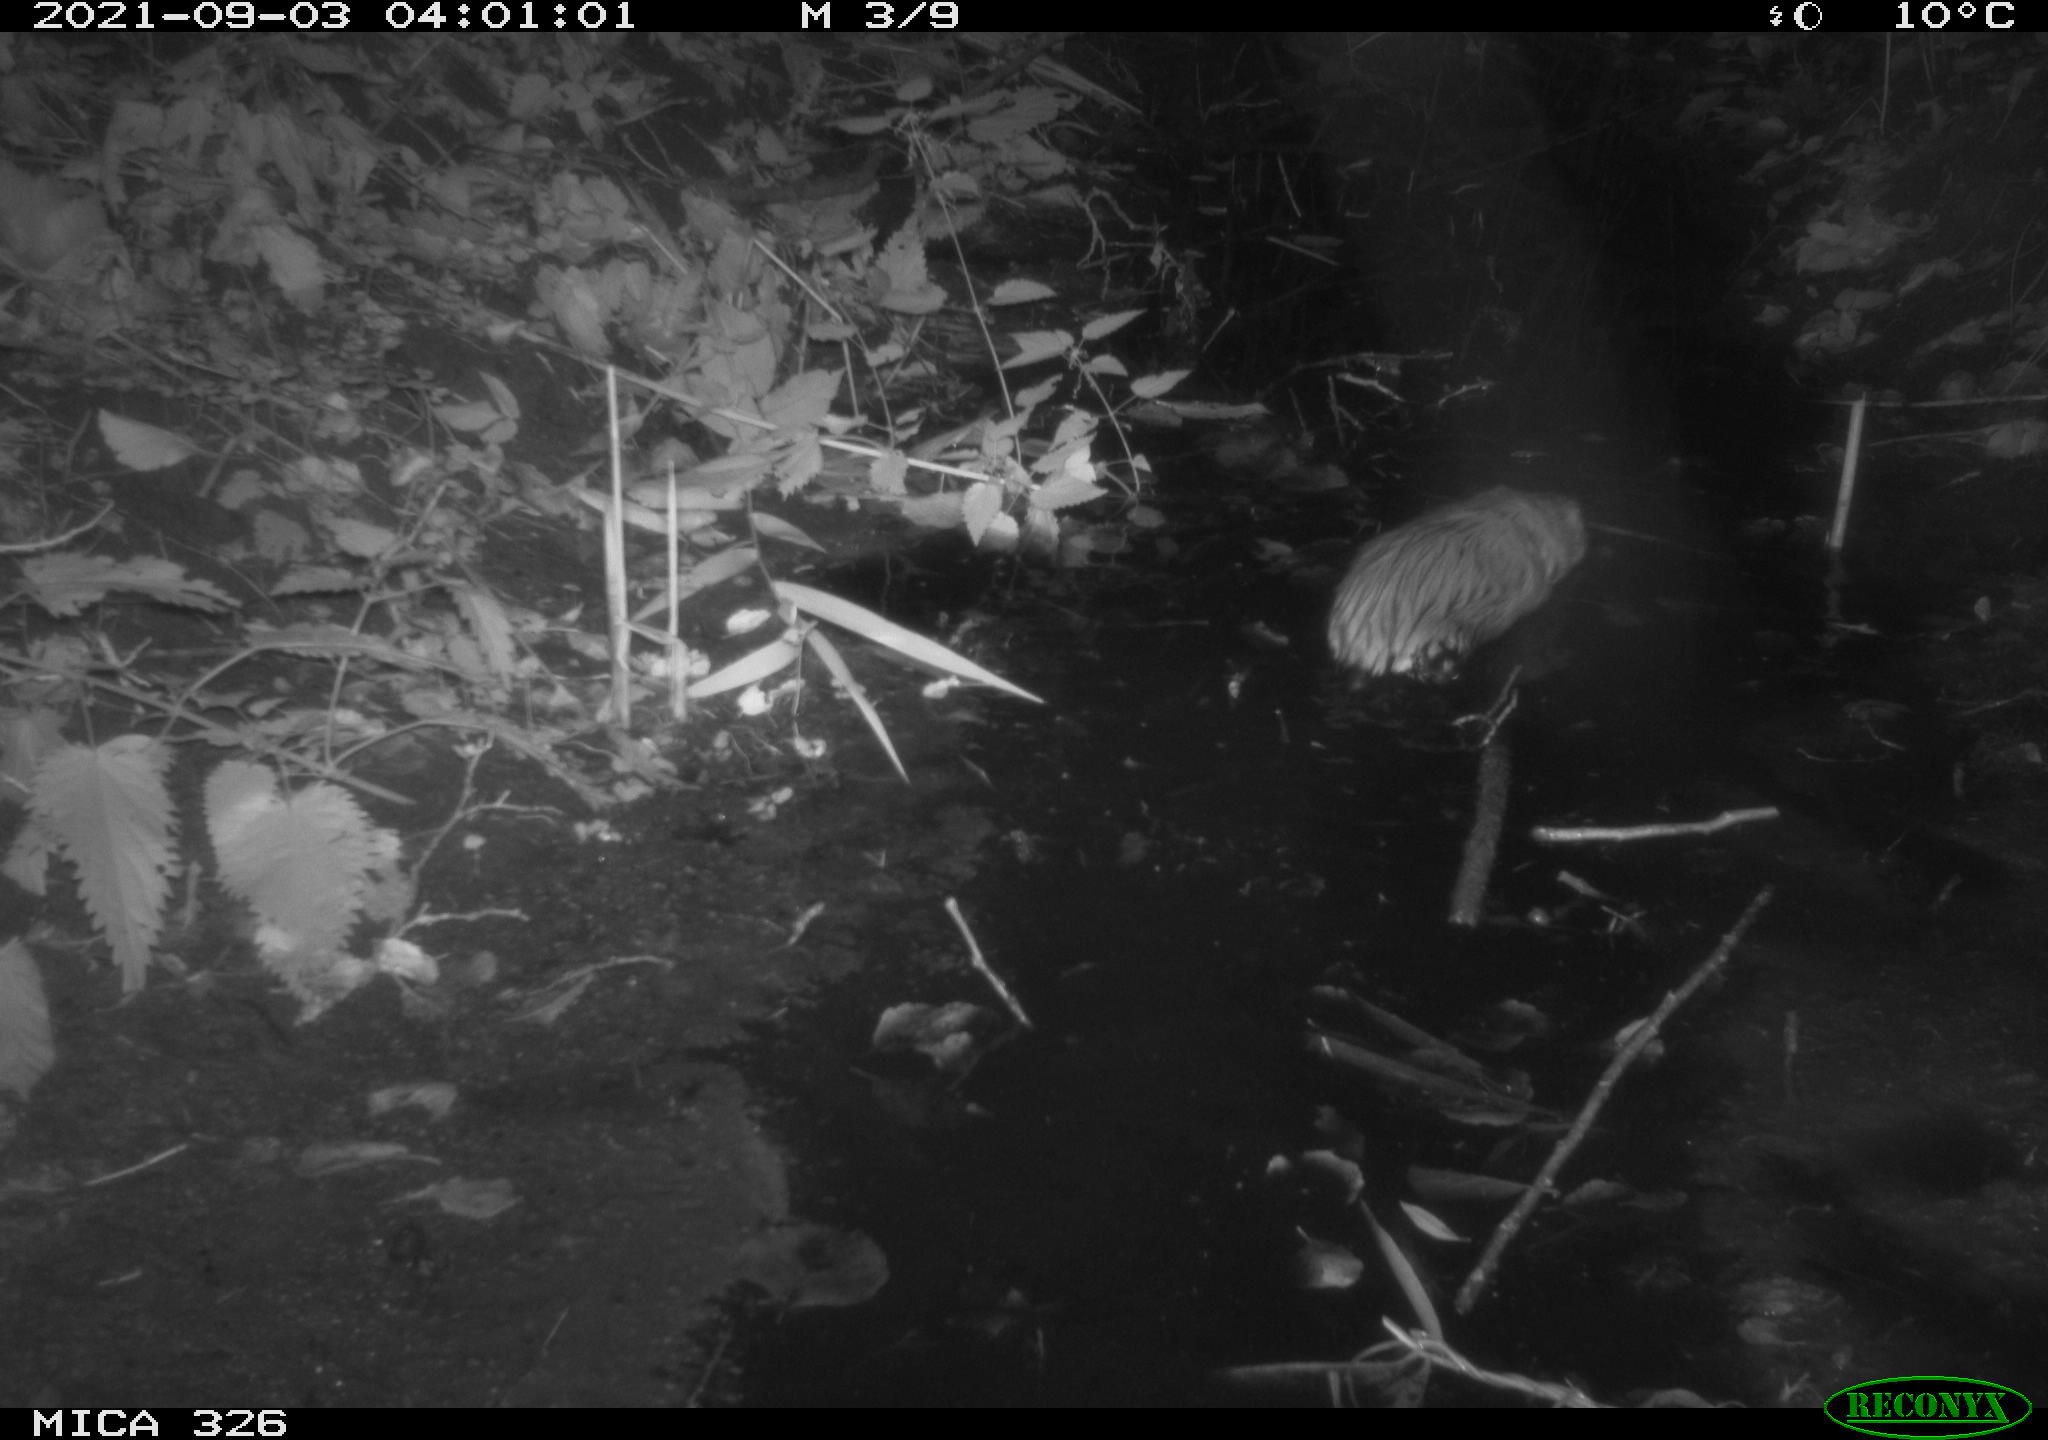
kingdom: Animalia
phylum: Chordata
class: Mammalia
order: Rodentia
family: Cricetidae
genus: Ondatra
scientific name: Ondatra zibethicus
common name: Muskrat
